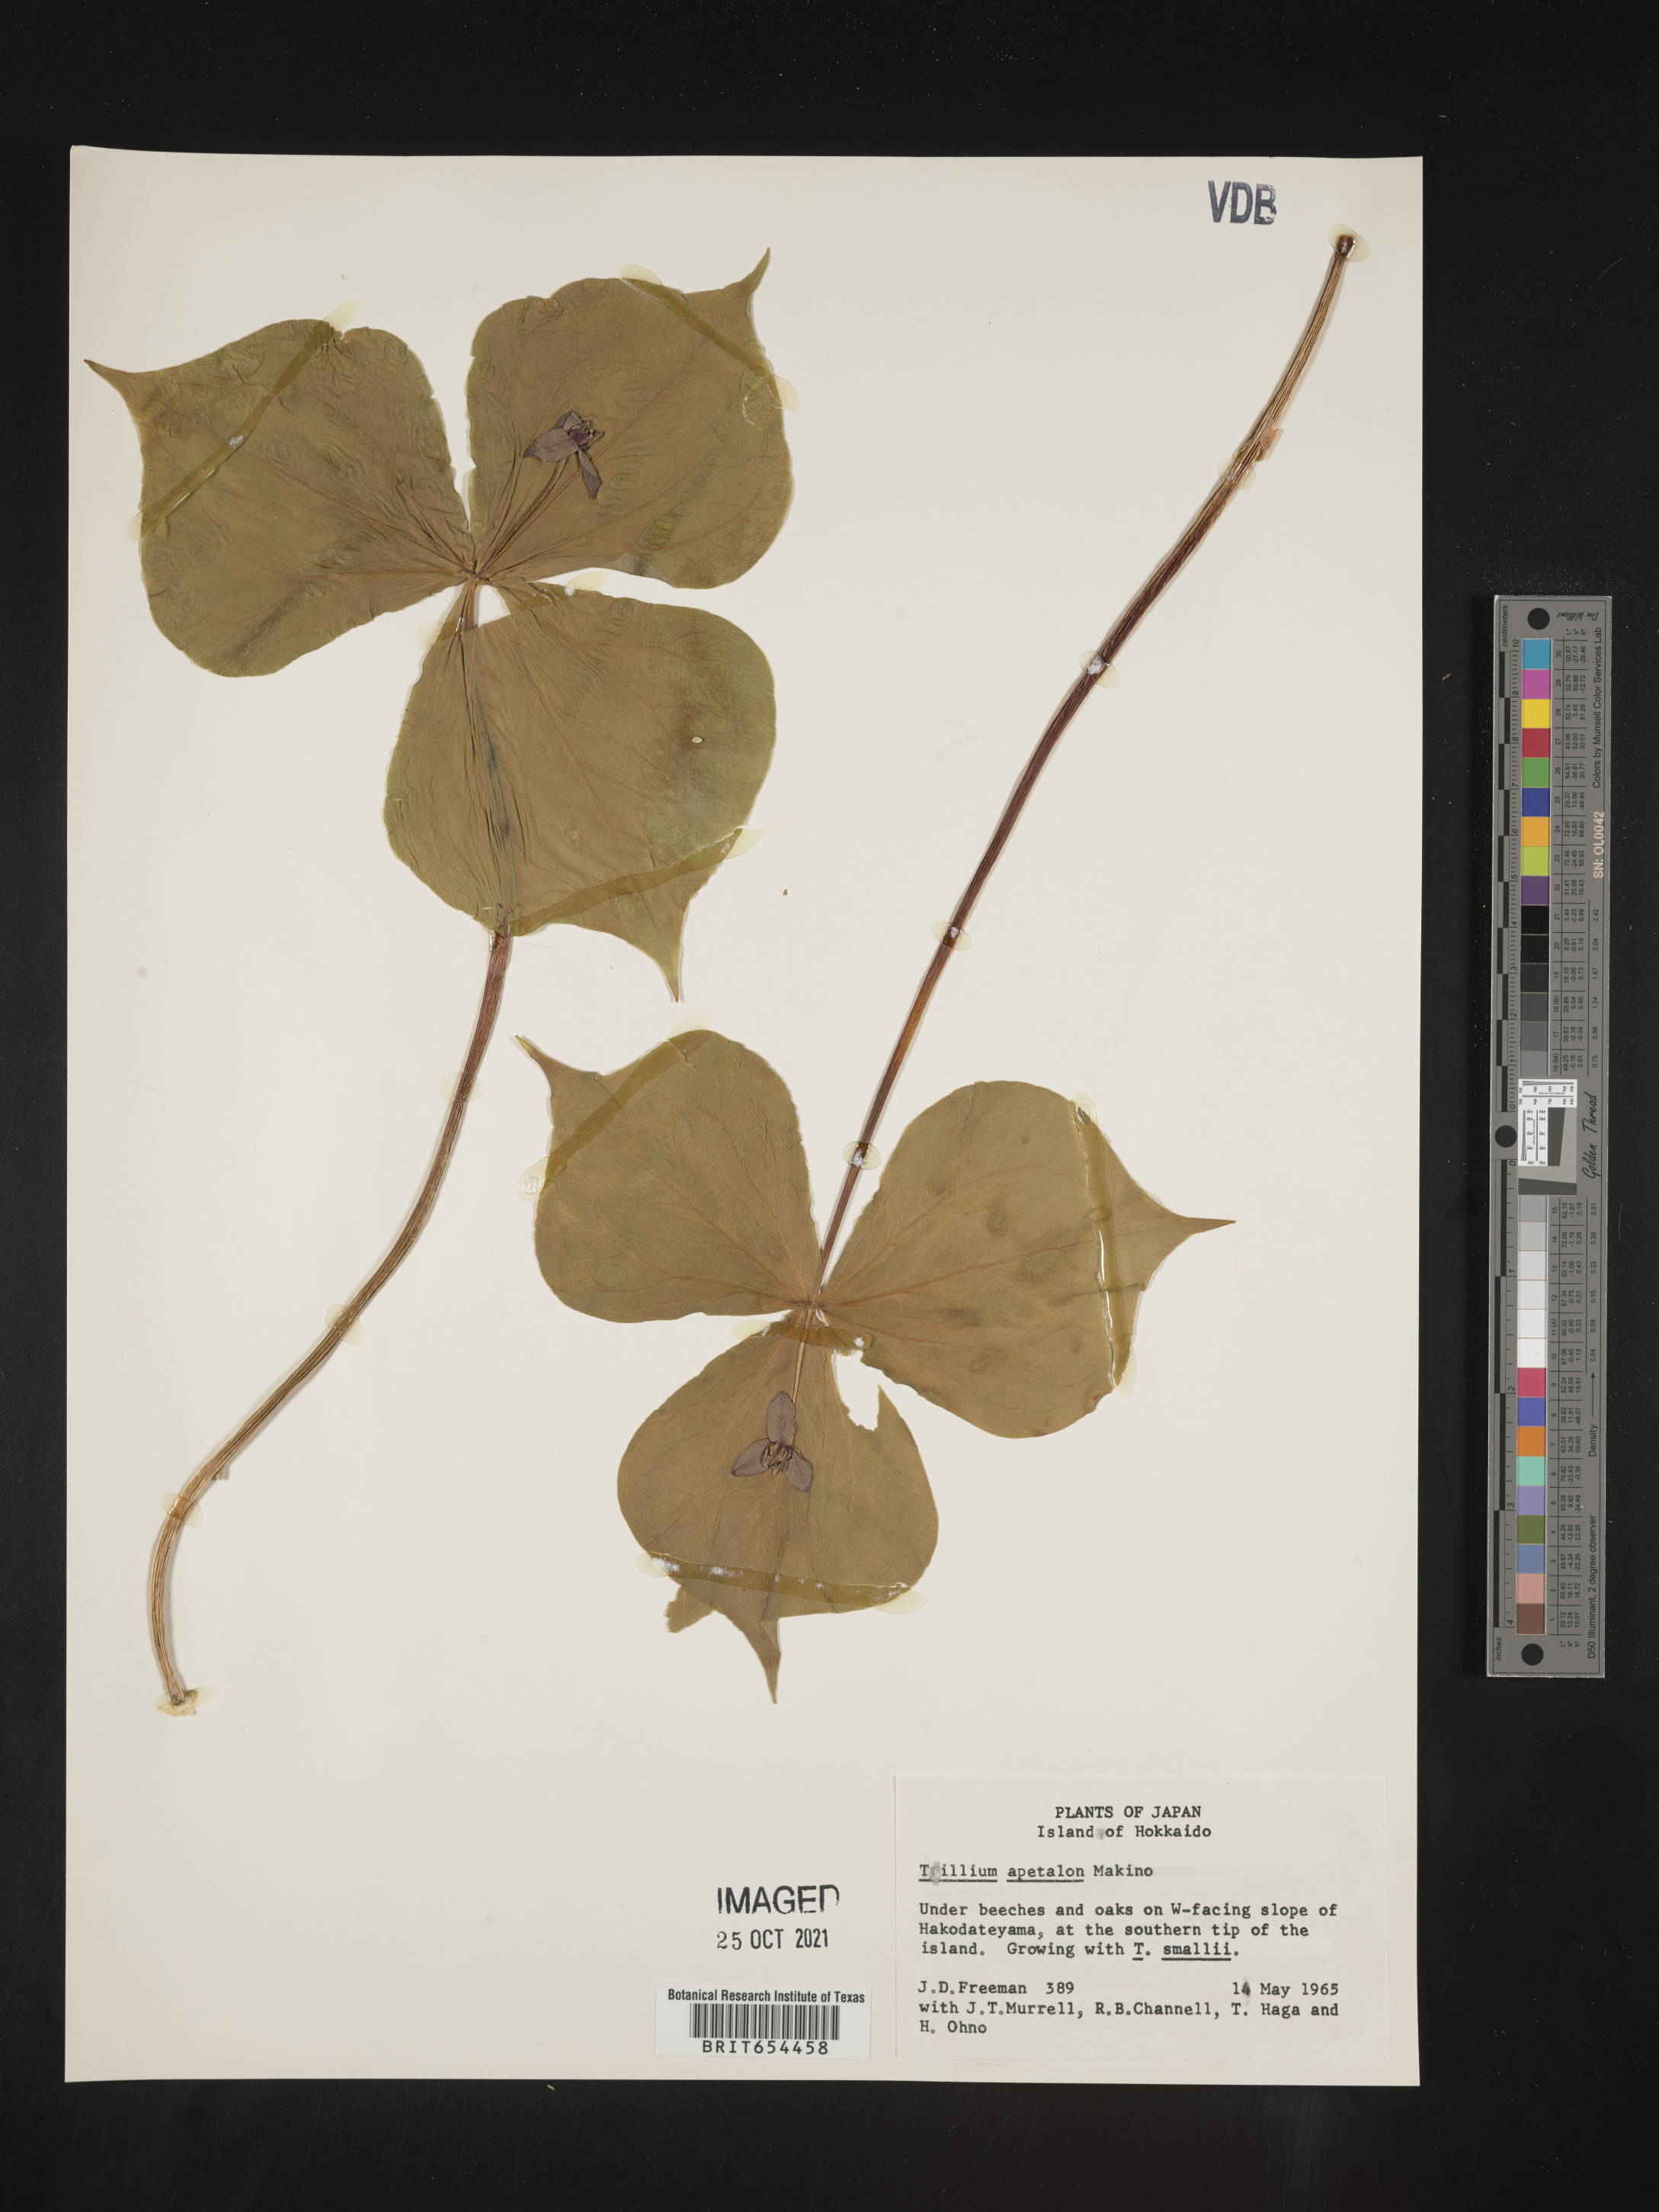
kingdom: Plantae
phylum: Tracheophyta
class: Liliopsida
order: Liliales
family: Melanthiaceae
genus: Trillium
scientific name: Trillium
